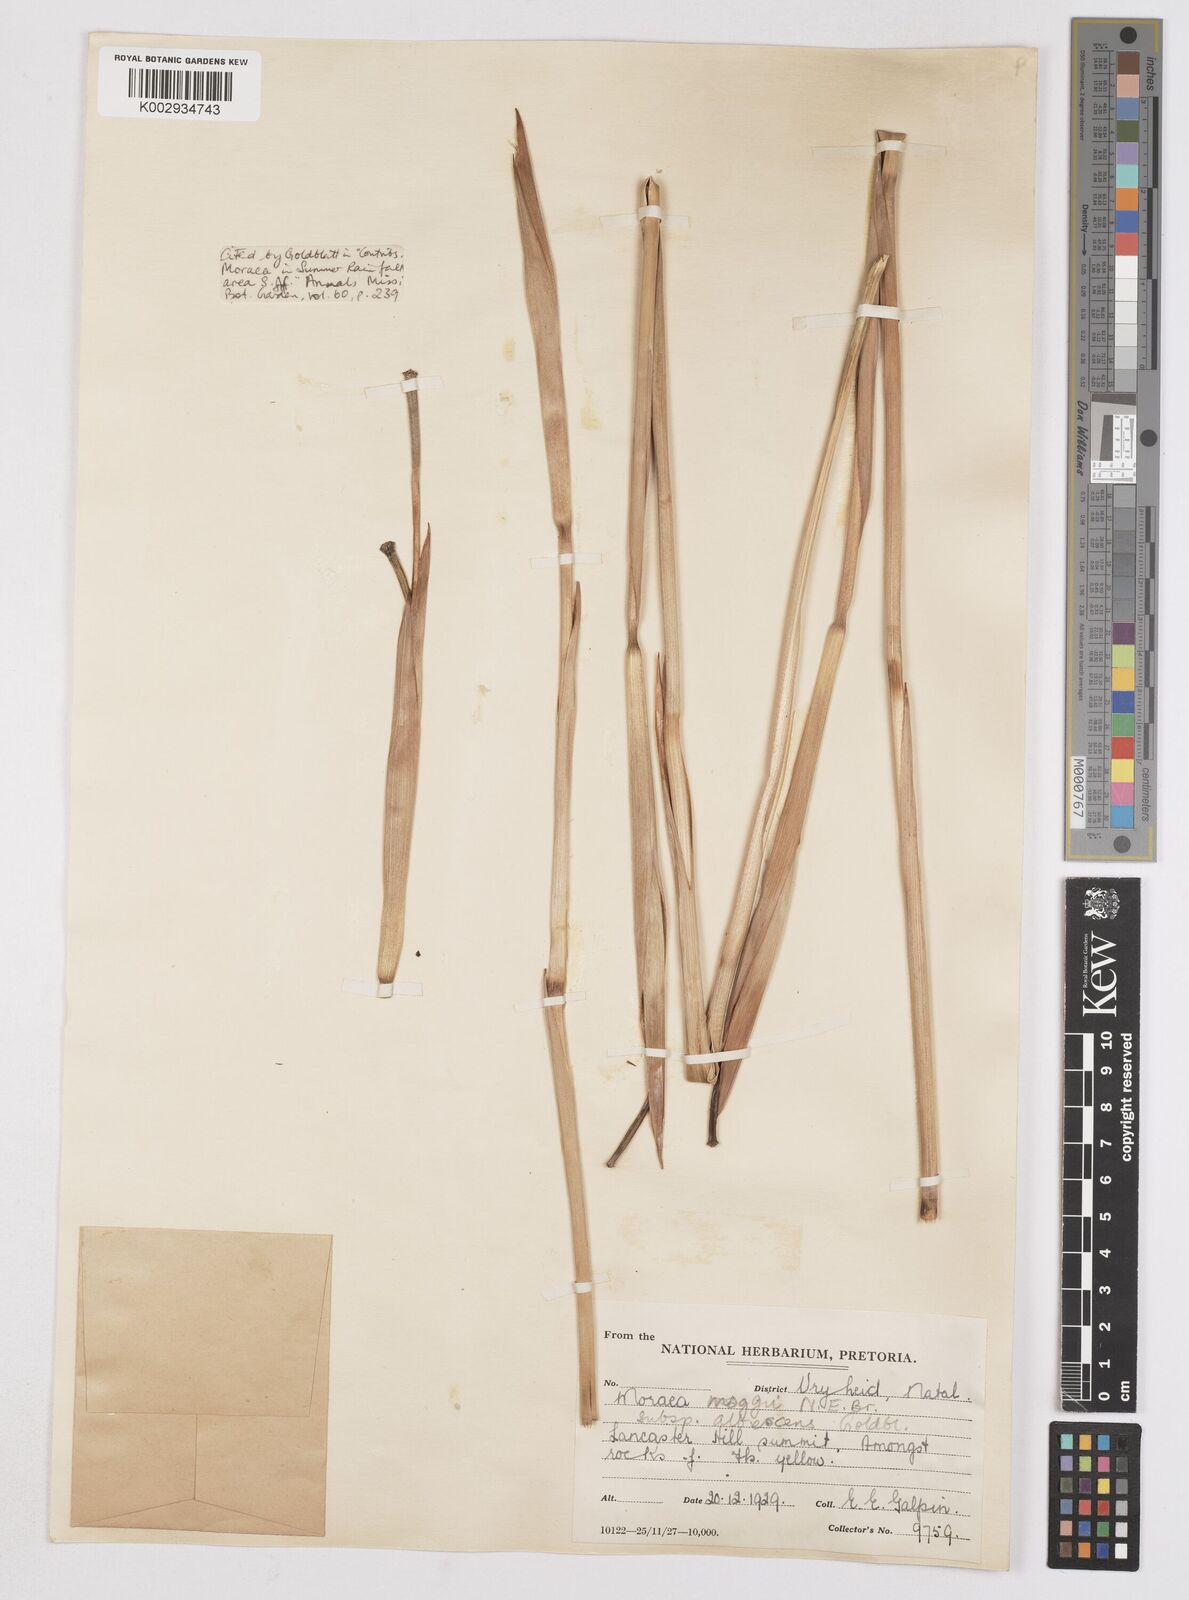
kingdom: Plantae
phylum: Tracheophyta
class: Liliopsida
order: Asparagales
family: Iridaceae
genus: Moraea
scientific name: Moraea moggii
